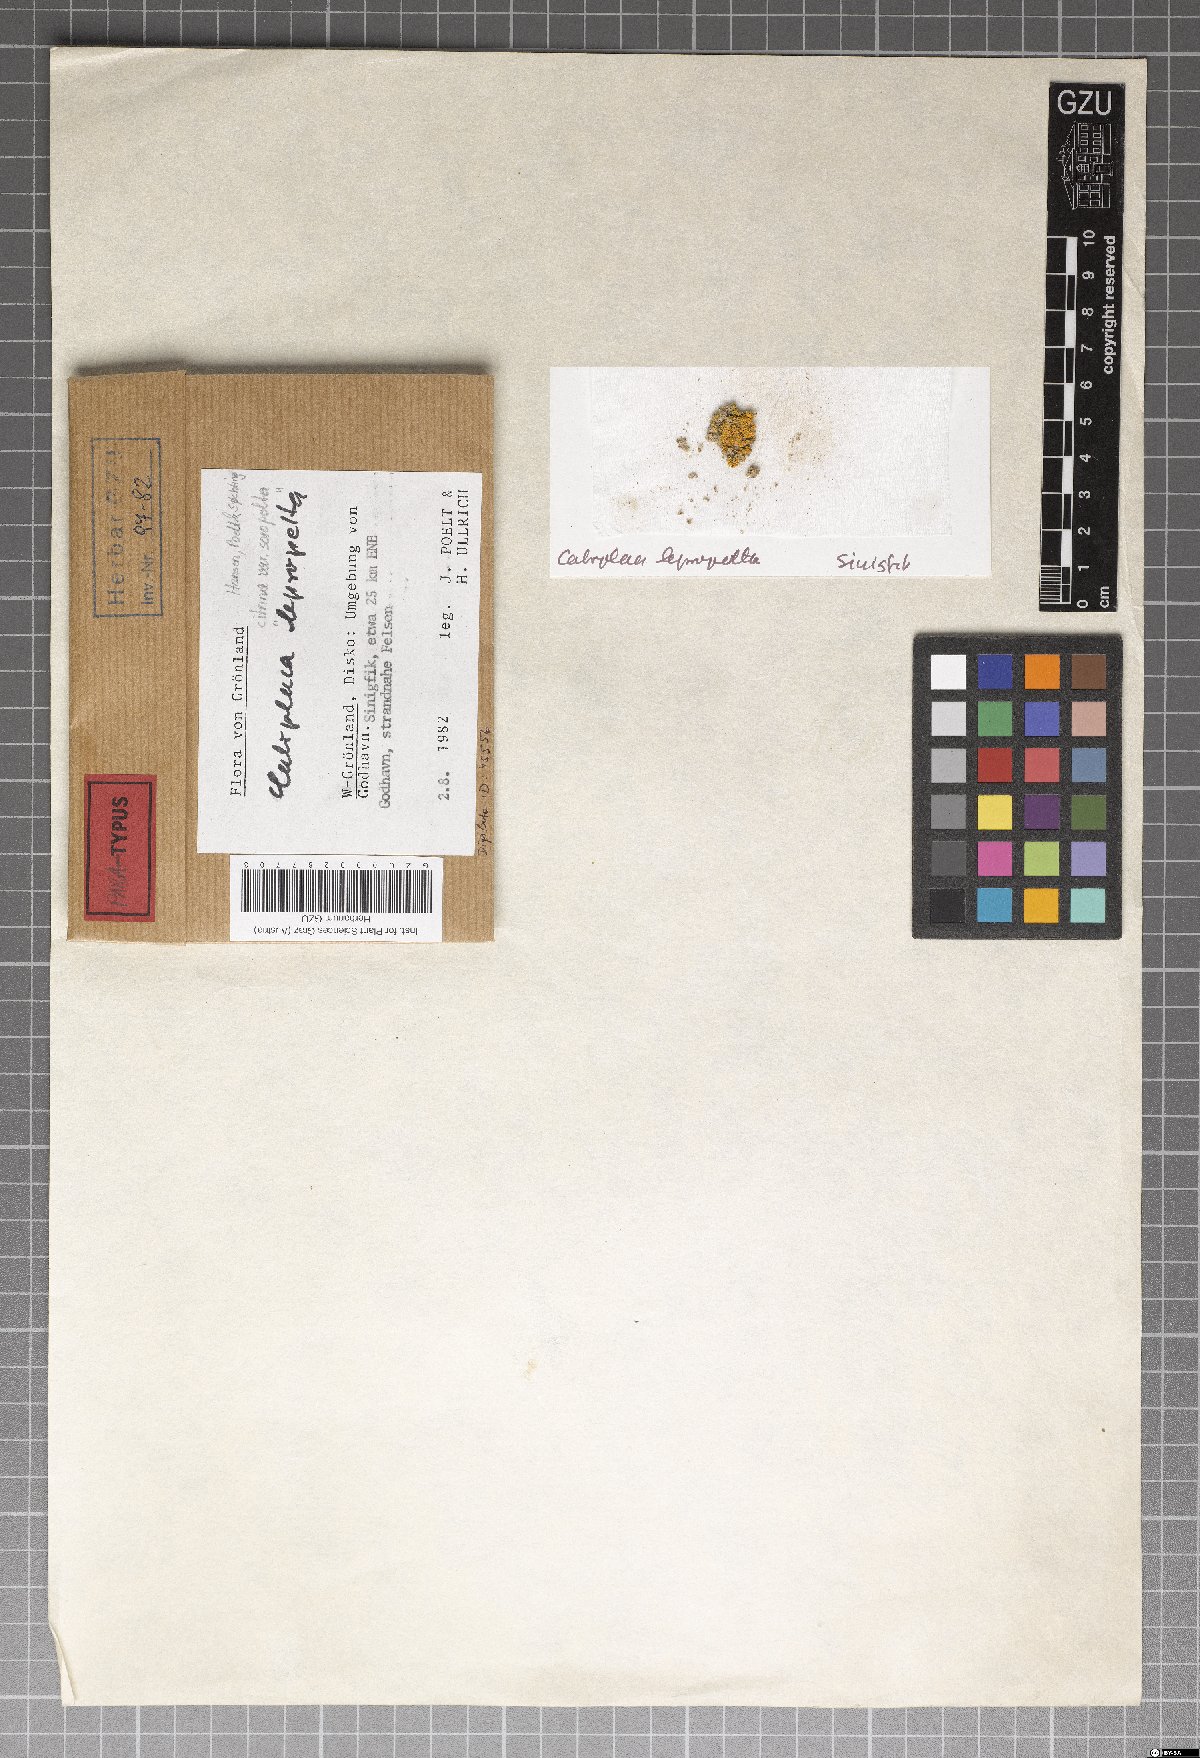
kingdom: Fungi
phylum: Ascomycota
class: Lecanoromycetes
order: Teloschistales
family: Teloschistaceae
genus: Austroplaca
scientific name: Austroplaca soropelta
